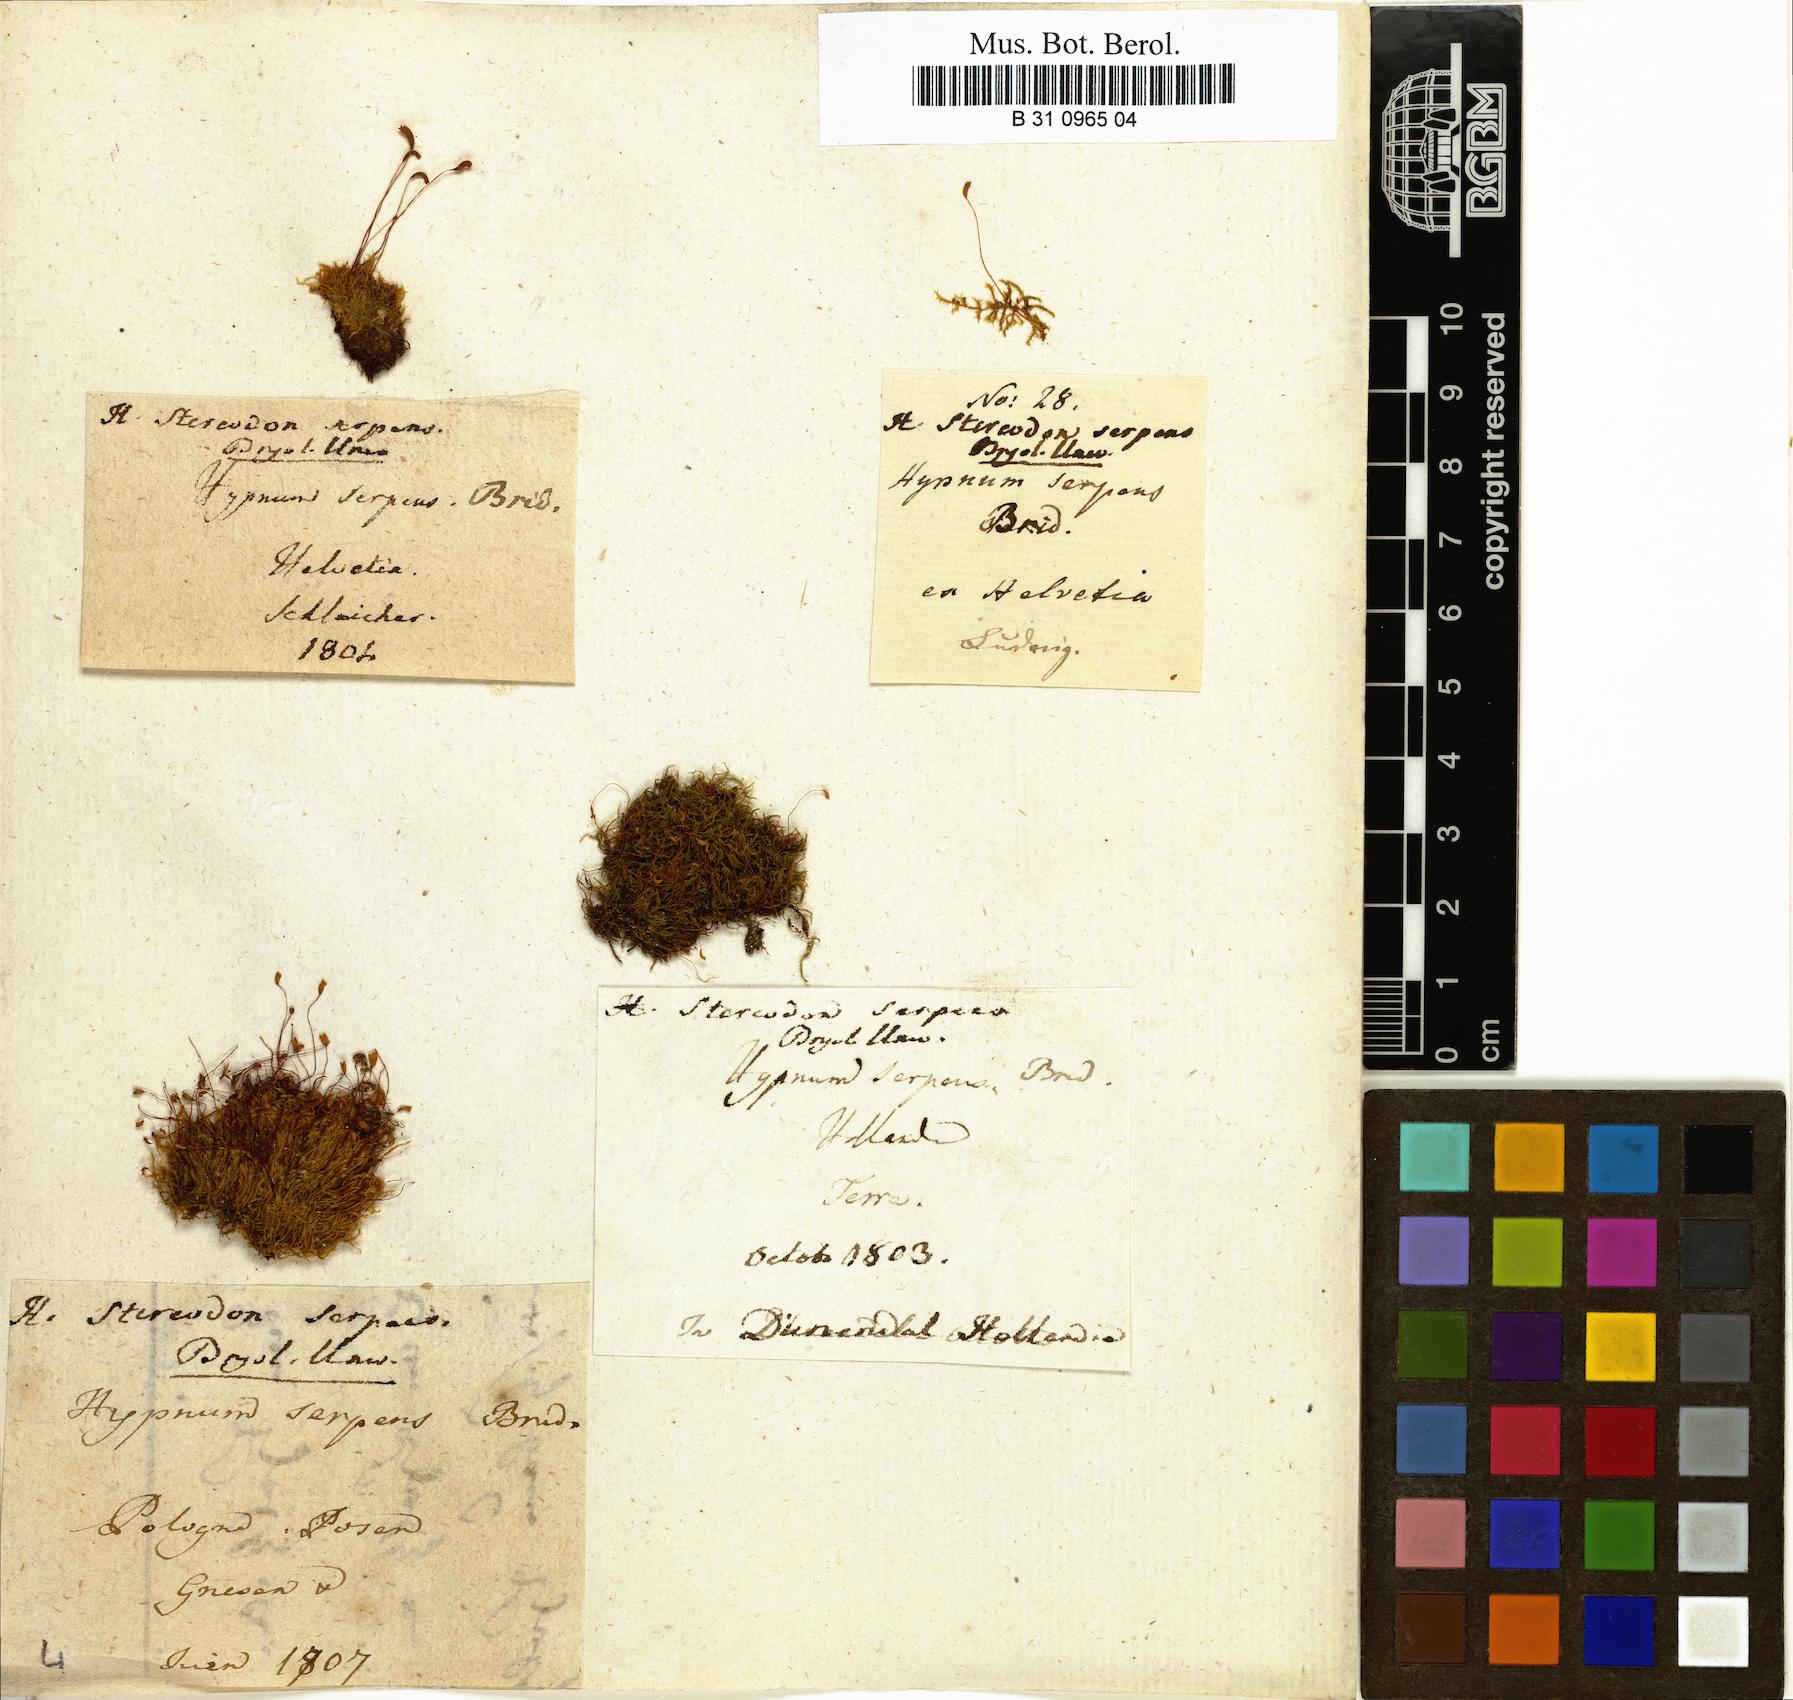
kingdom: Plantae
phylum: Bryophyta
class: Bryopsida
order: Hypnales
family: Amblystegiaceae
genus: Amblystegium
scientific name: Amblystegium serpens
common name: Jurkatzka's feather moss
